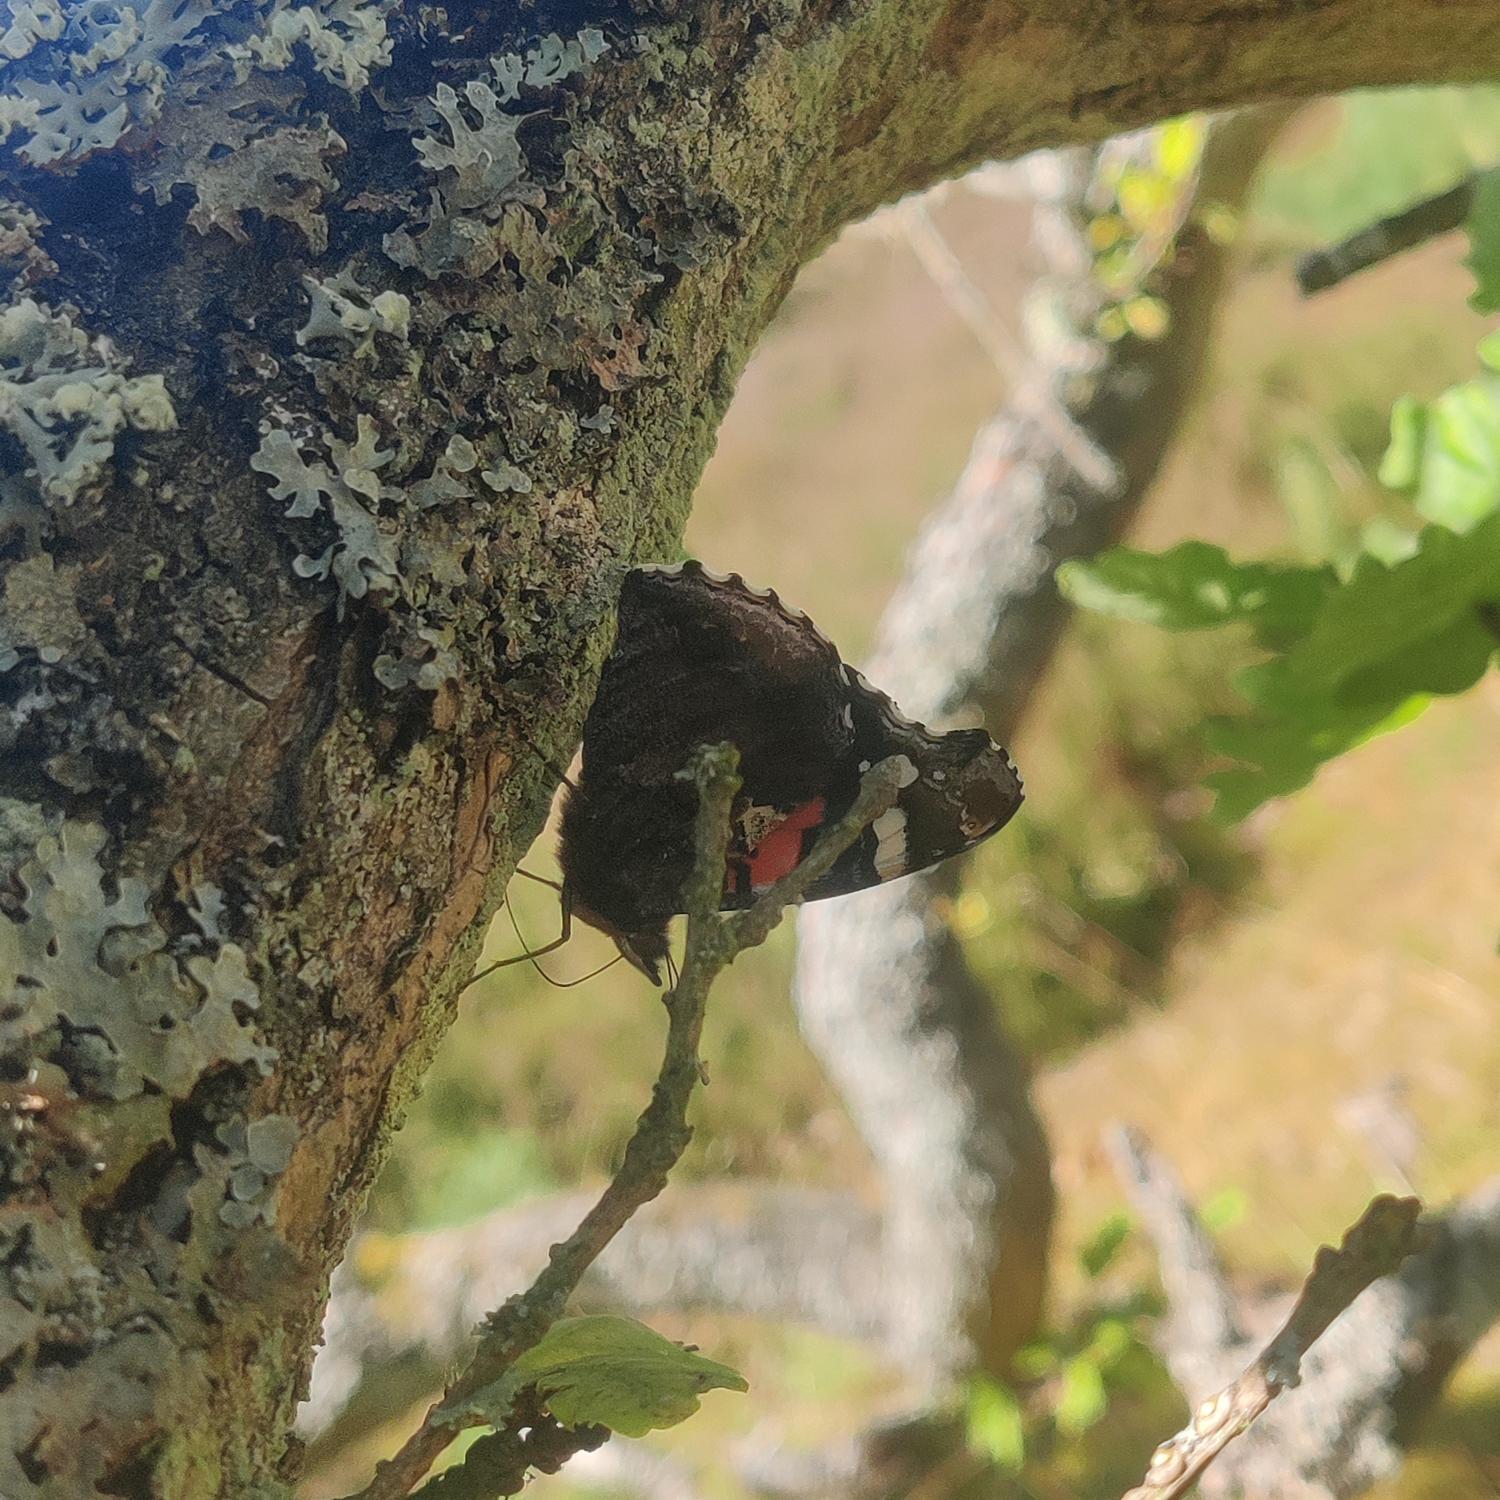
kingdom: Animalia
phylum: Arthropoda
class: Insecta
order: Lepidoptera
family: Nymphalidae
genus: Vanessa
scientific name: Vanessa atalanta
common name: Admiral
